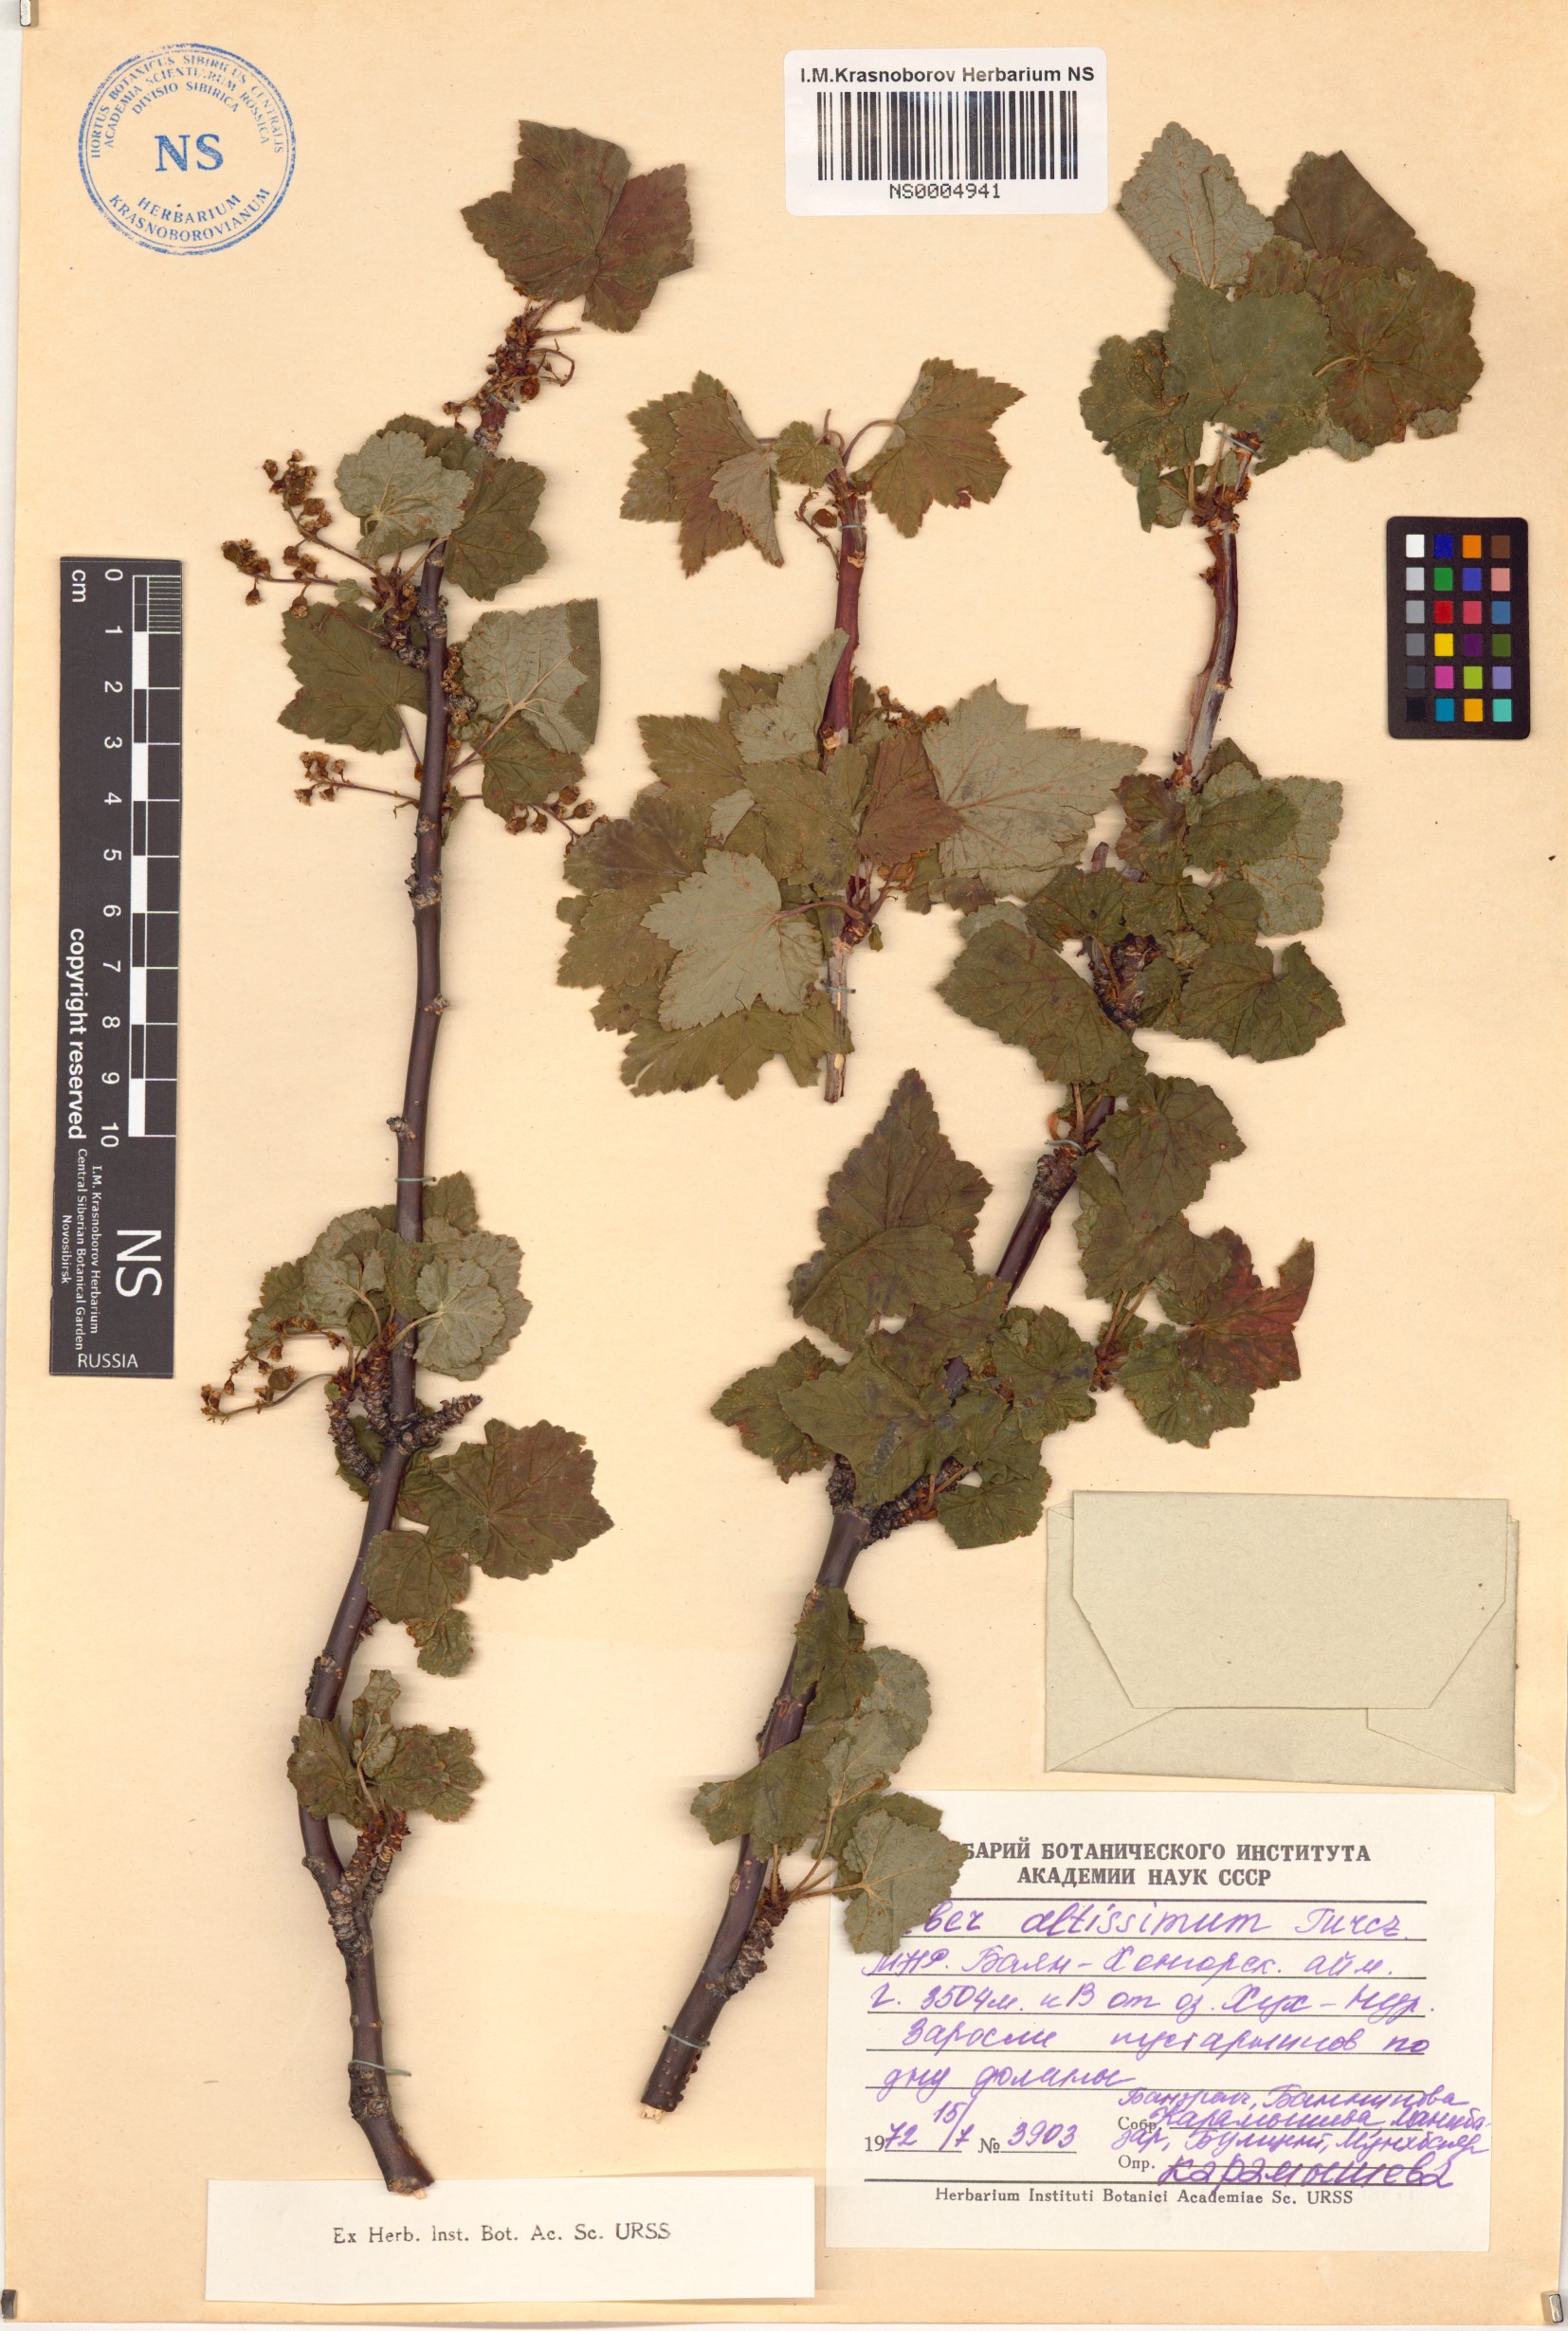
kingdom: Plantae
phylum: Tracheophyta
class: Magnoliopsida
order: Saxifragales
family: Grossulariaceae
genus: Ribes
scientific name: Ribes petraeum
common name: Rock currant
